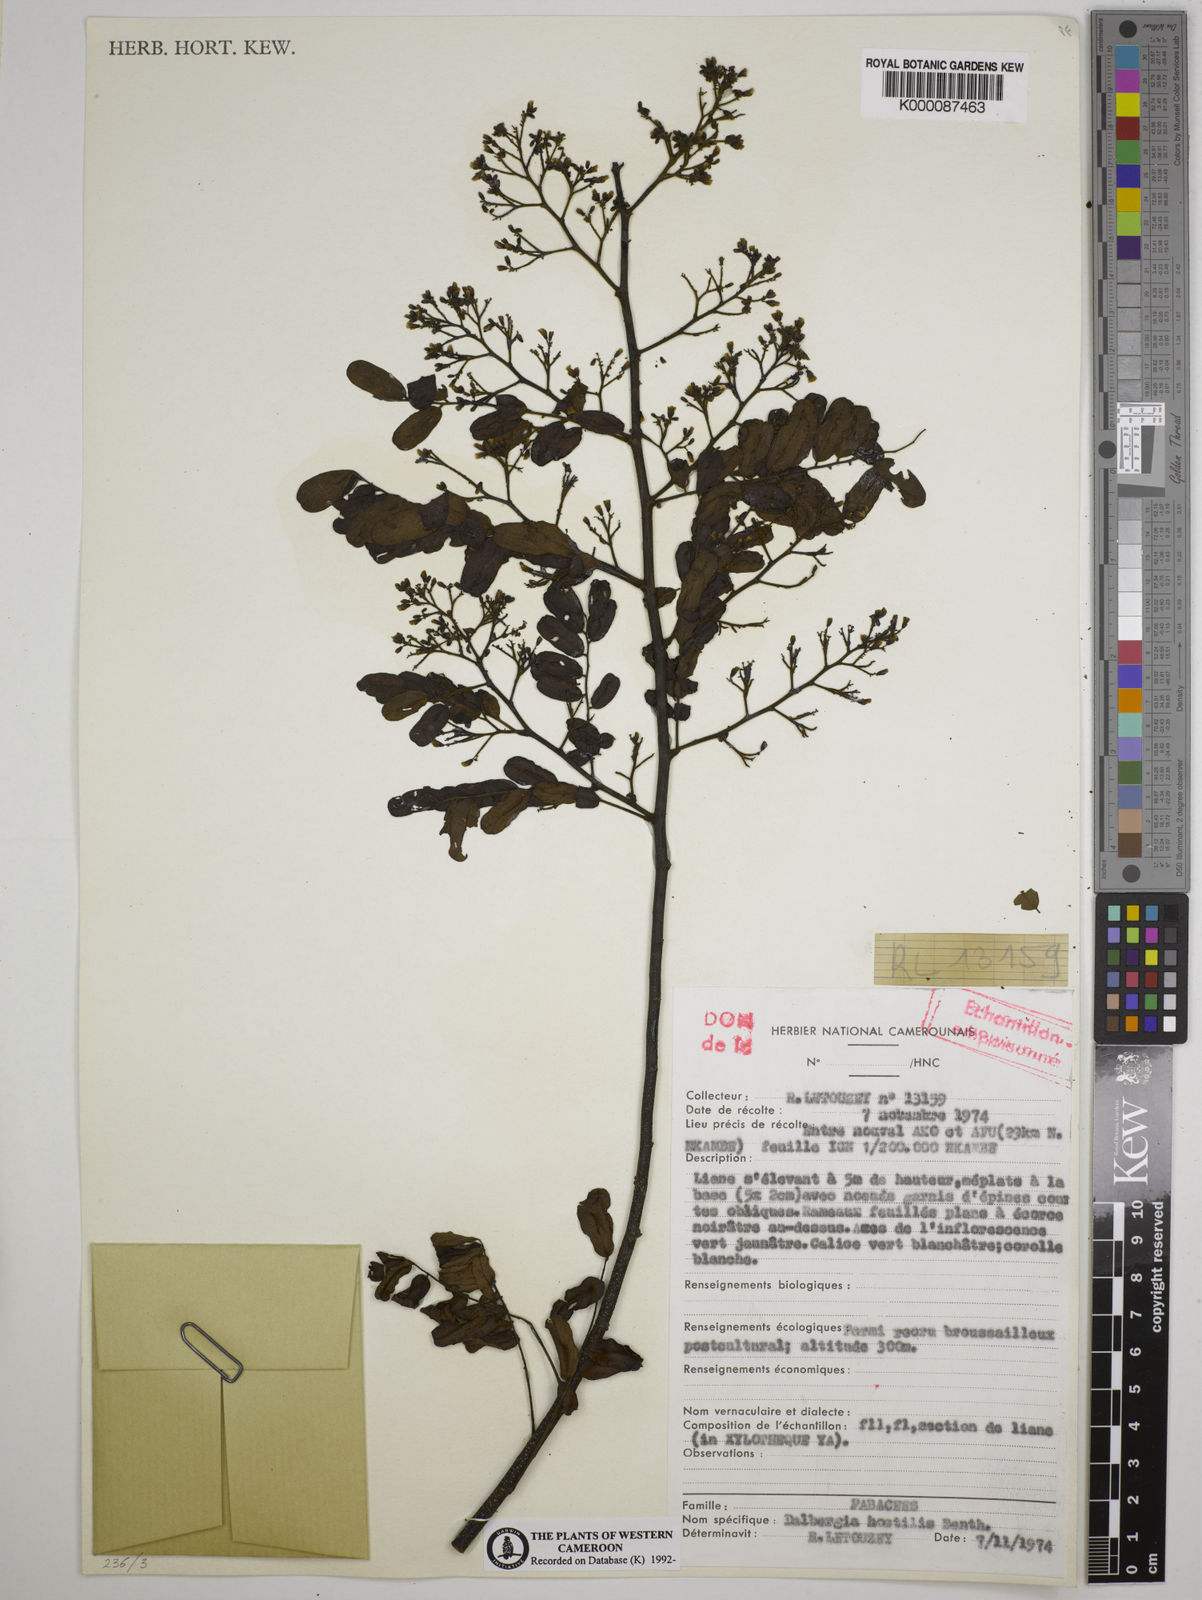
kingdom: Plantae
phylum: Tracheophyta
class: Magnoliopsida
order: Fabales
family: Fabaceae
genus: Dalbergia
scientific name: Dalbergia hostilis
